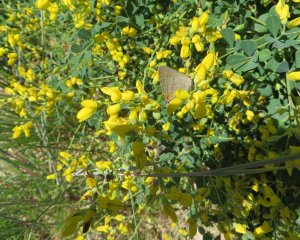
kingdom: Animalia
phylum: Arthropoda
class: Insecta
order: Lepidoptera
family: Lycaenidae
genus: Strymon
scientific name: Strymon melinus
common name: Gray Hairstreak
